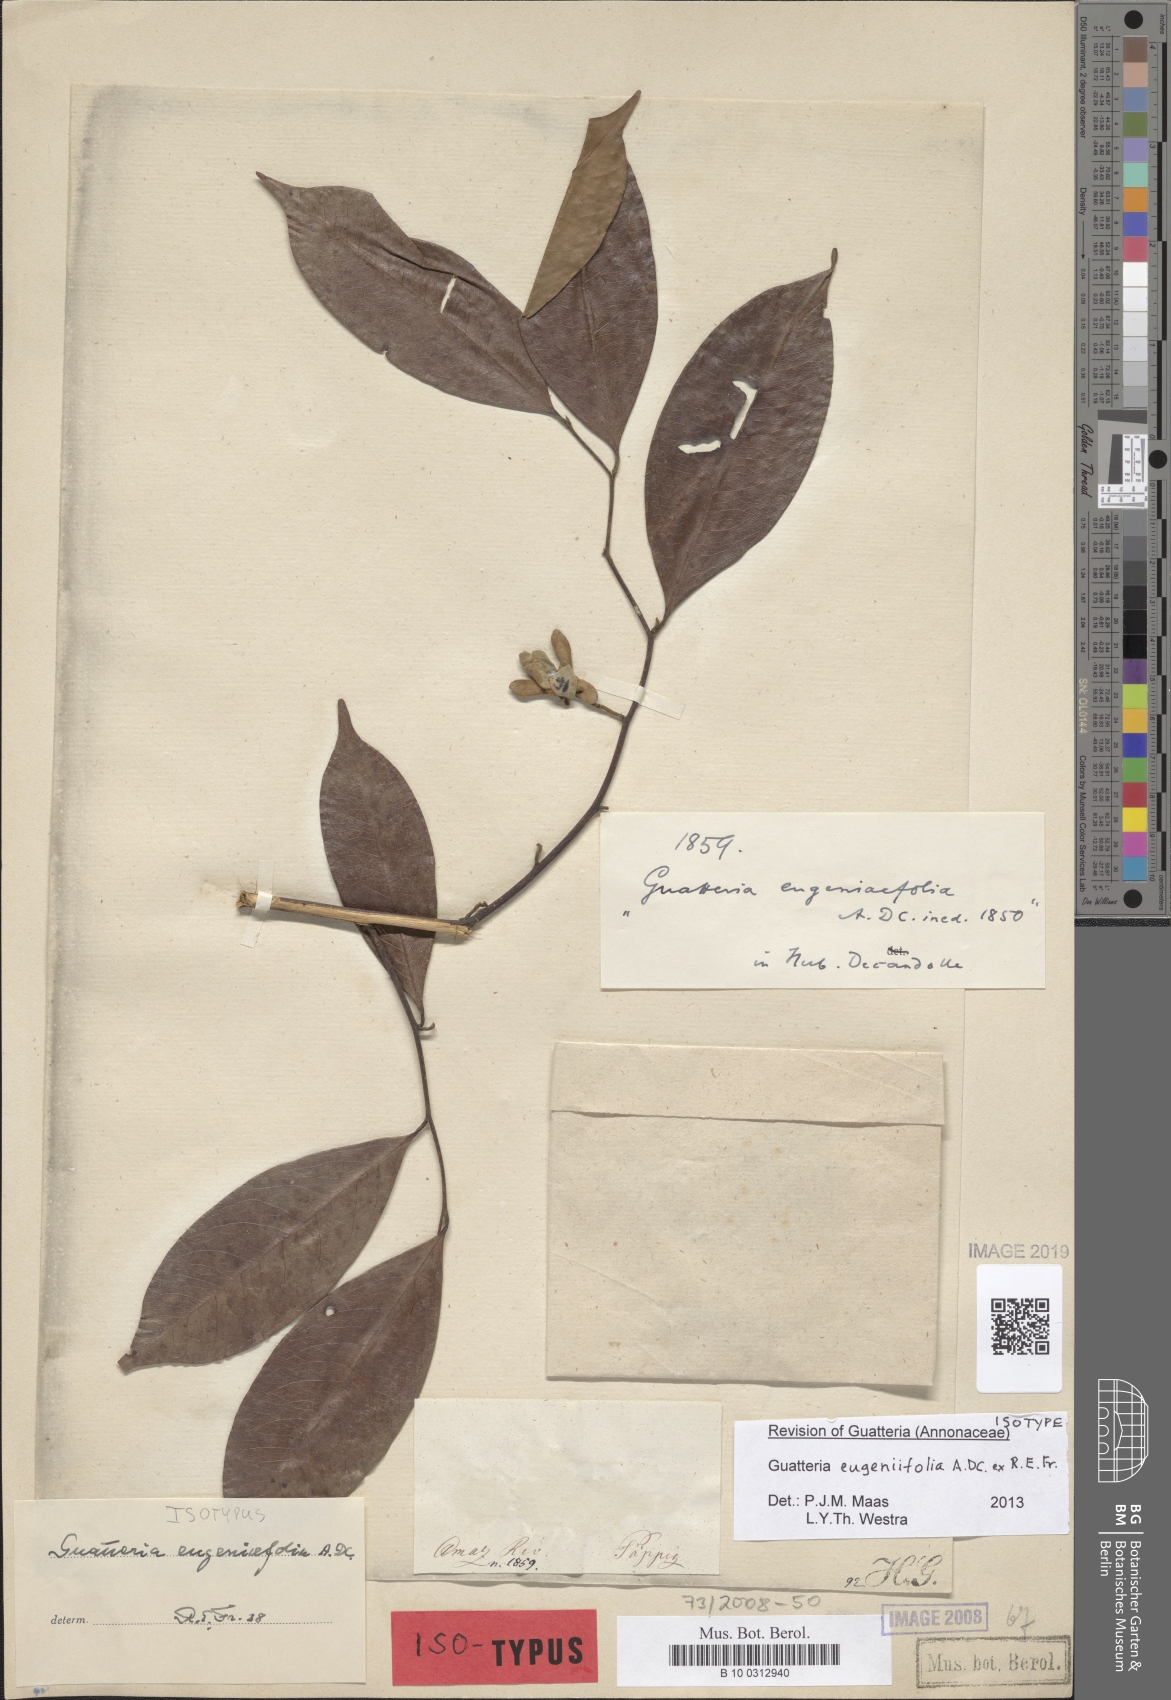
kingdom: Plantae
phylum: Tracheophyta
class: Magnoliopsida
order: Magnoliales
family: Annonaceae
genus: Guatteria
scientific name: Guatteria eugeniifolia
